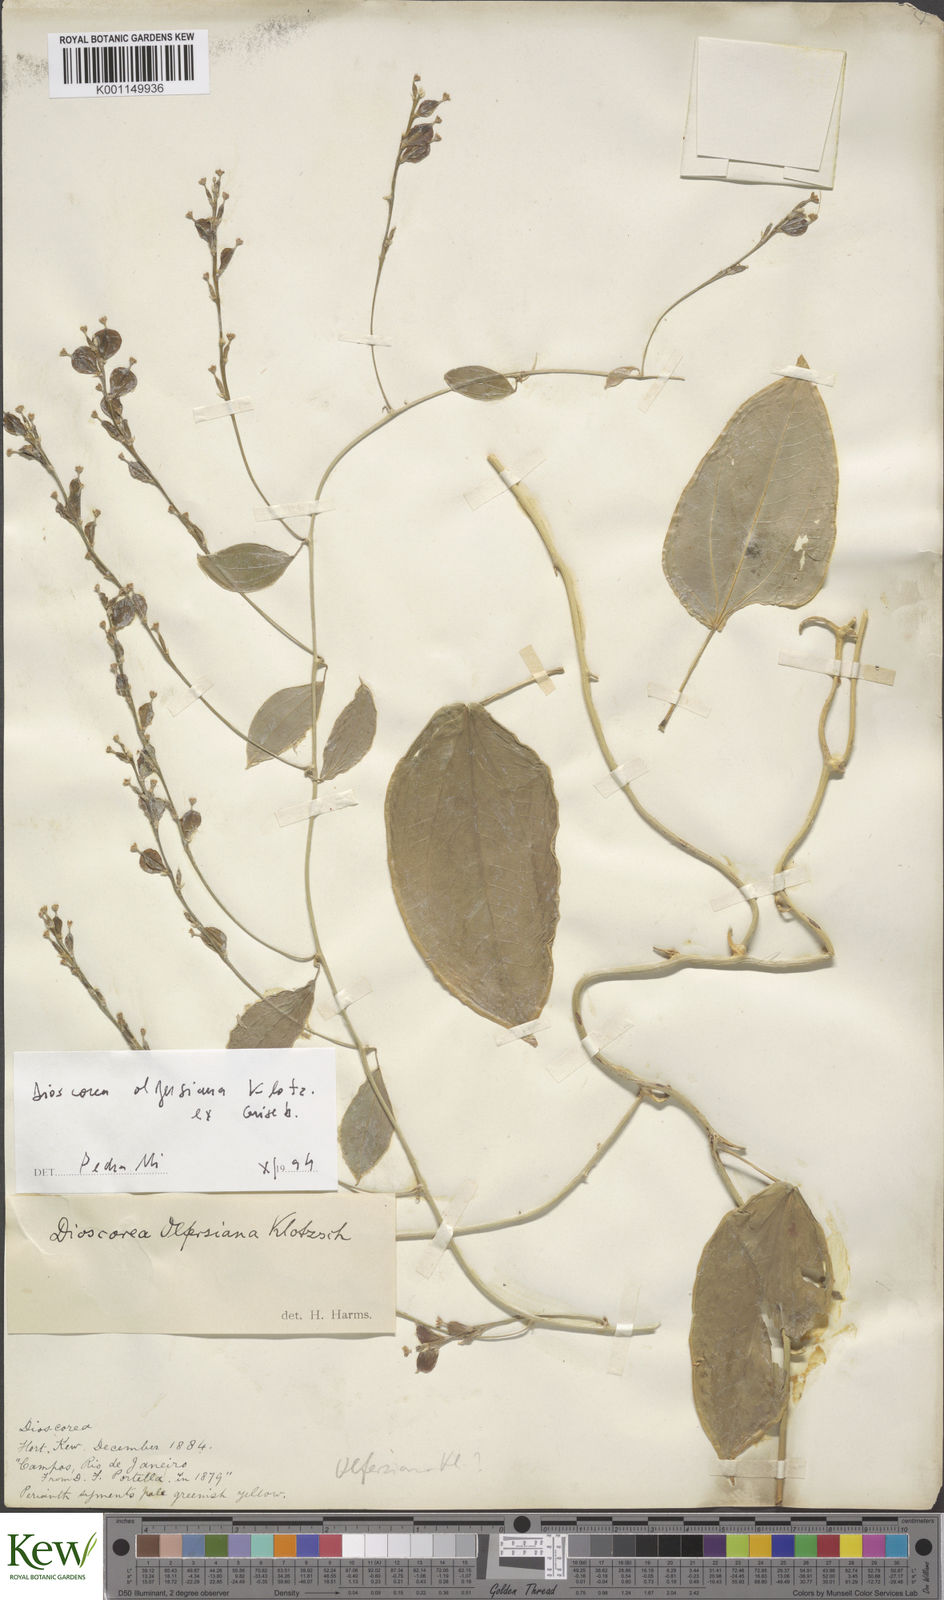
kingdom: Plantae
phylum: Tracheophyta
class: Liliopsida
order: Dioscoreales
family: Dioscoreaceae
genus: Dioscorea
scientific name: Dioscorea olfersiana
